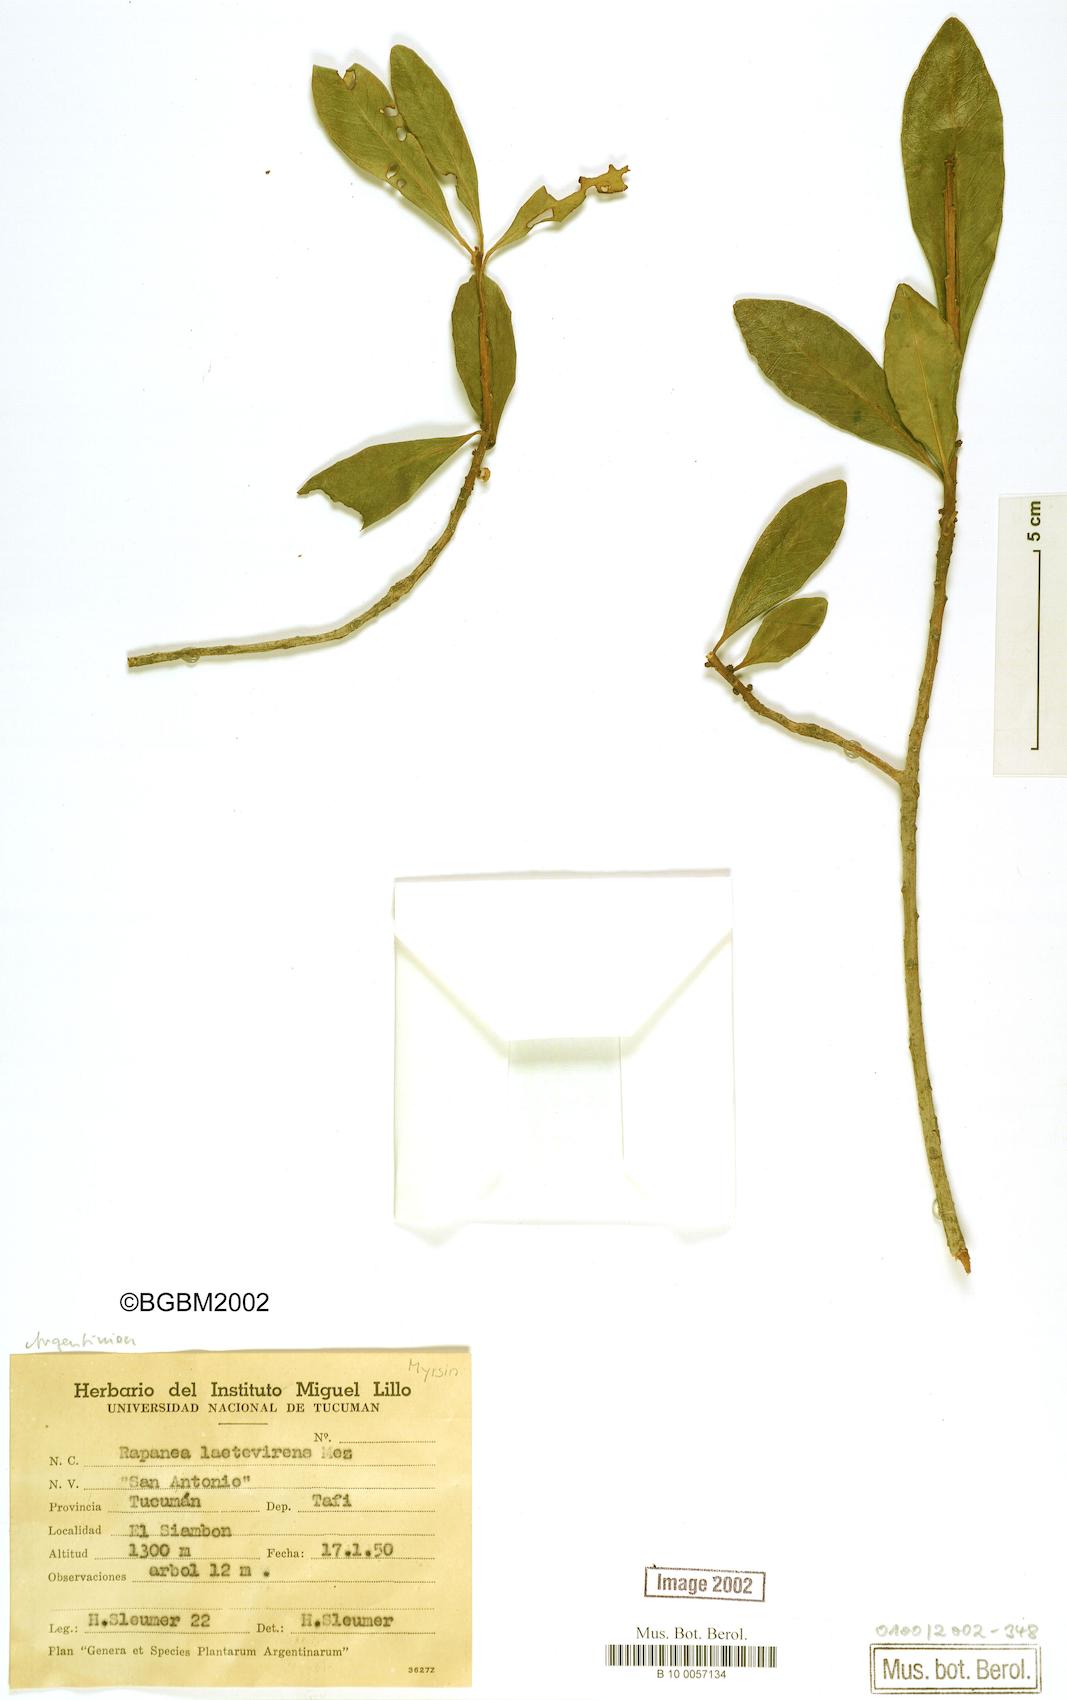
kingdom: Plantae
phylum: Tracheophyta
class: Magnoliopsida
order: Ericales
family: Primulaceae
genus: Myrsine
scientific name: Myrsine laetevirens
